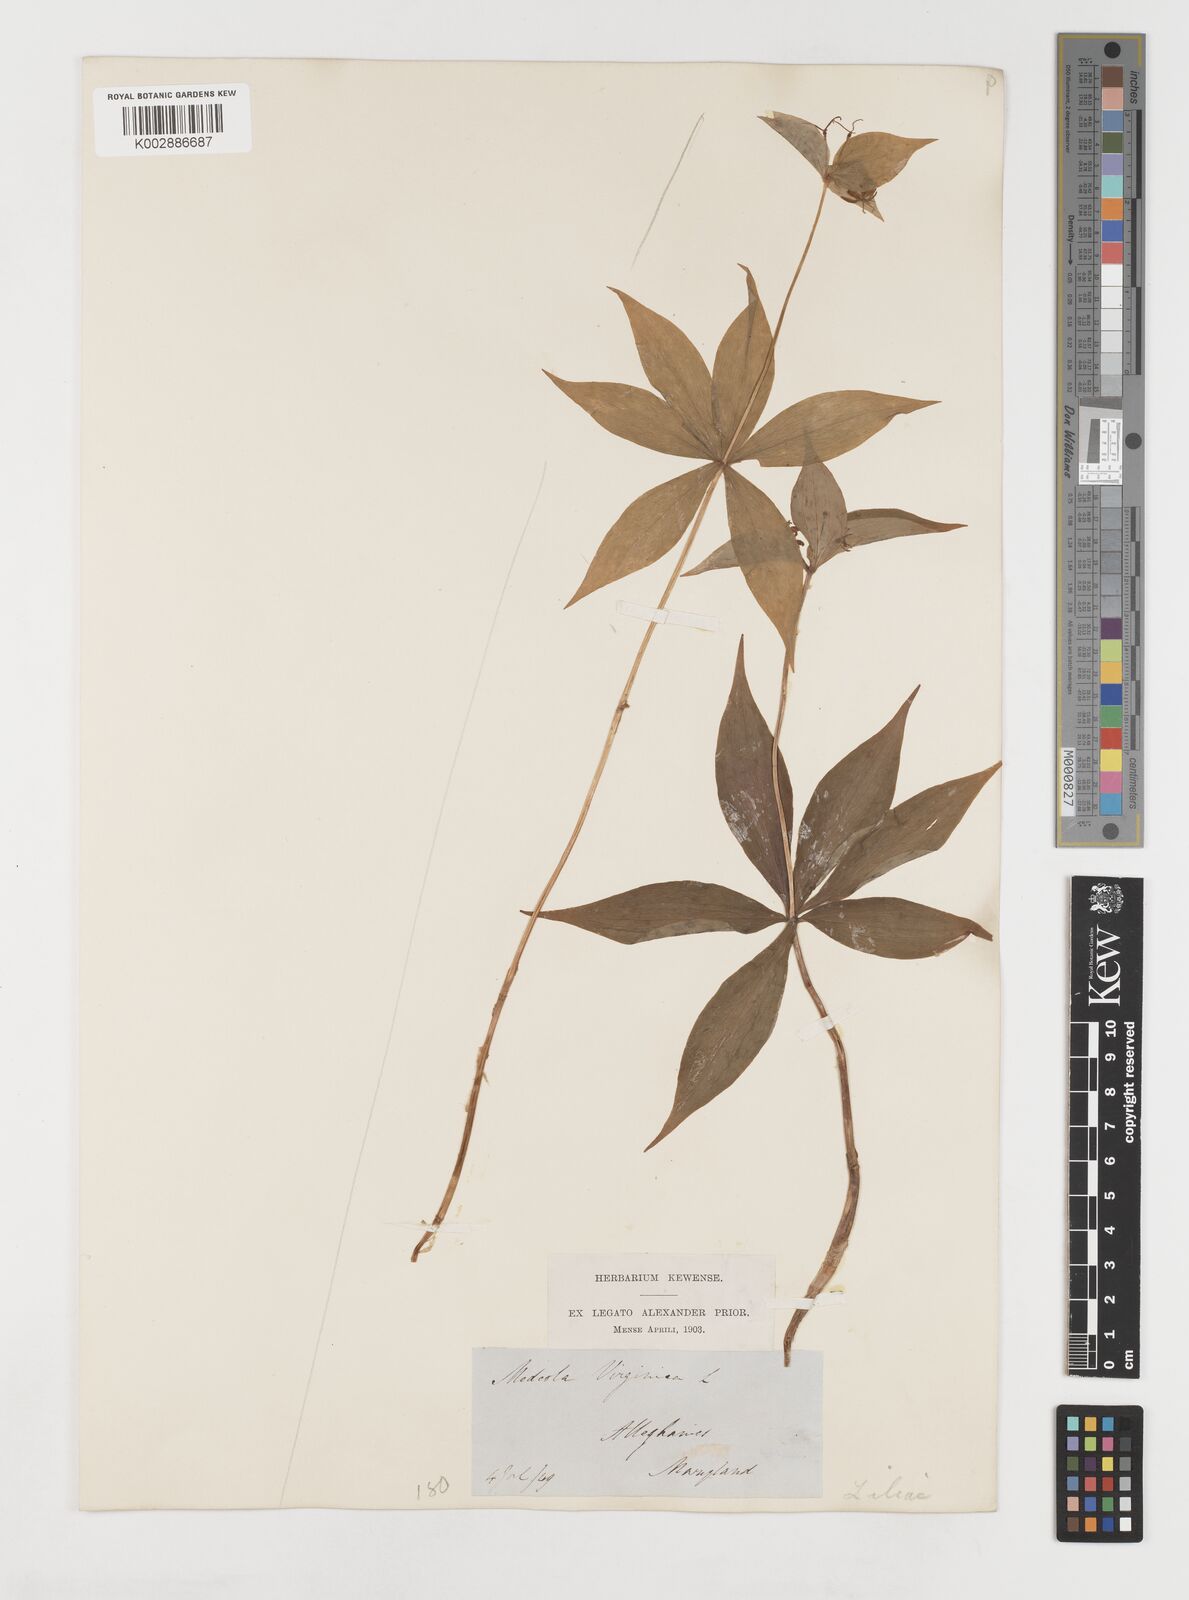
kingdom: Plantae
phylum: Tracheophyta
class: Liliopsida
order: Liliales
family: Liliaceae
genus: Medeola
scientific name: Medeola virginiana
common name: Indian cucumber-root
